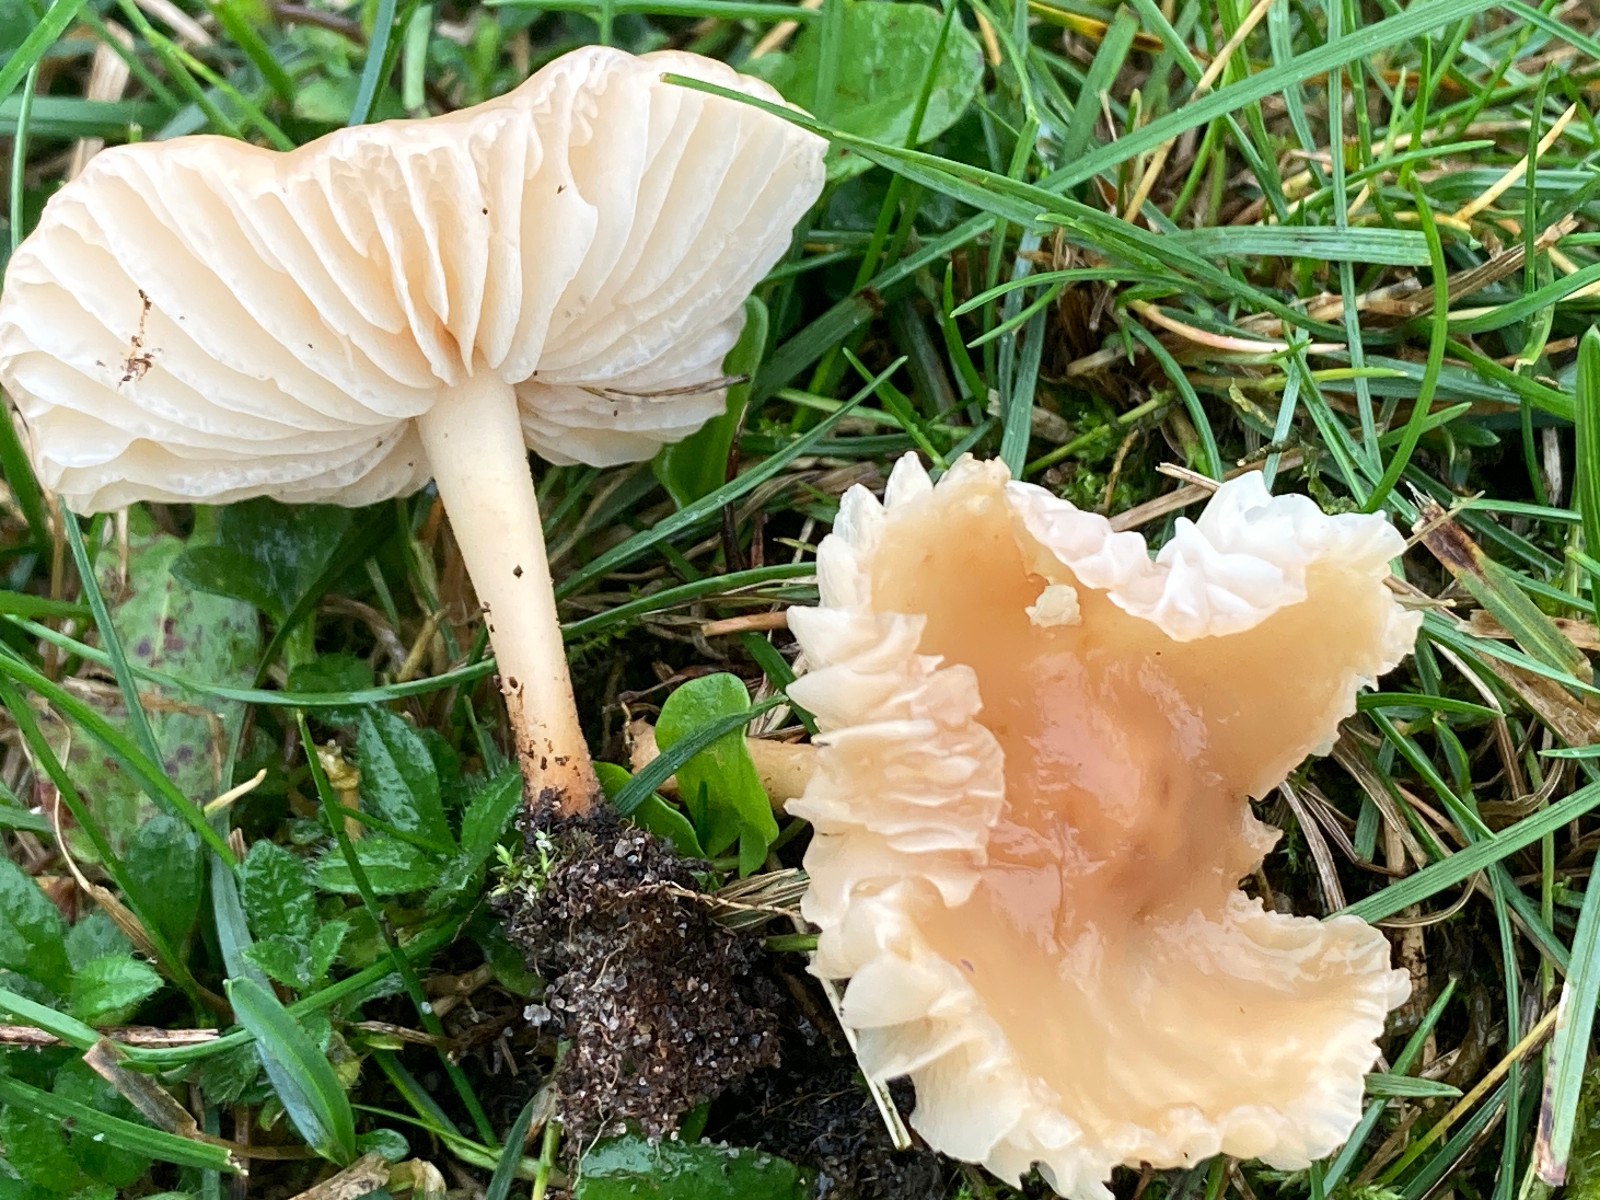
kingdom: Fungi
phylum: Basidiomycota
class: Agaricomycetes
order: Agaricales
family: Marasmiaceae
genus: Marasmius
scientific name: Marasmius oreades
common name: elledans-bruskhat
